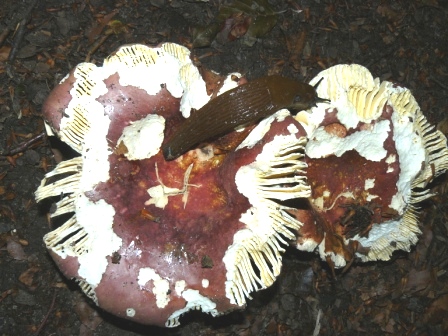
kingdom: Fungi
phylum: Basidiomycota
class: Agaricomycetes
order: Russulales
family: Russulaceae
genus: Russula
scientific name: Russula olivacea
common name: stor skørhat
